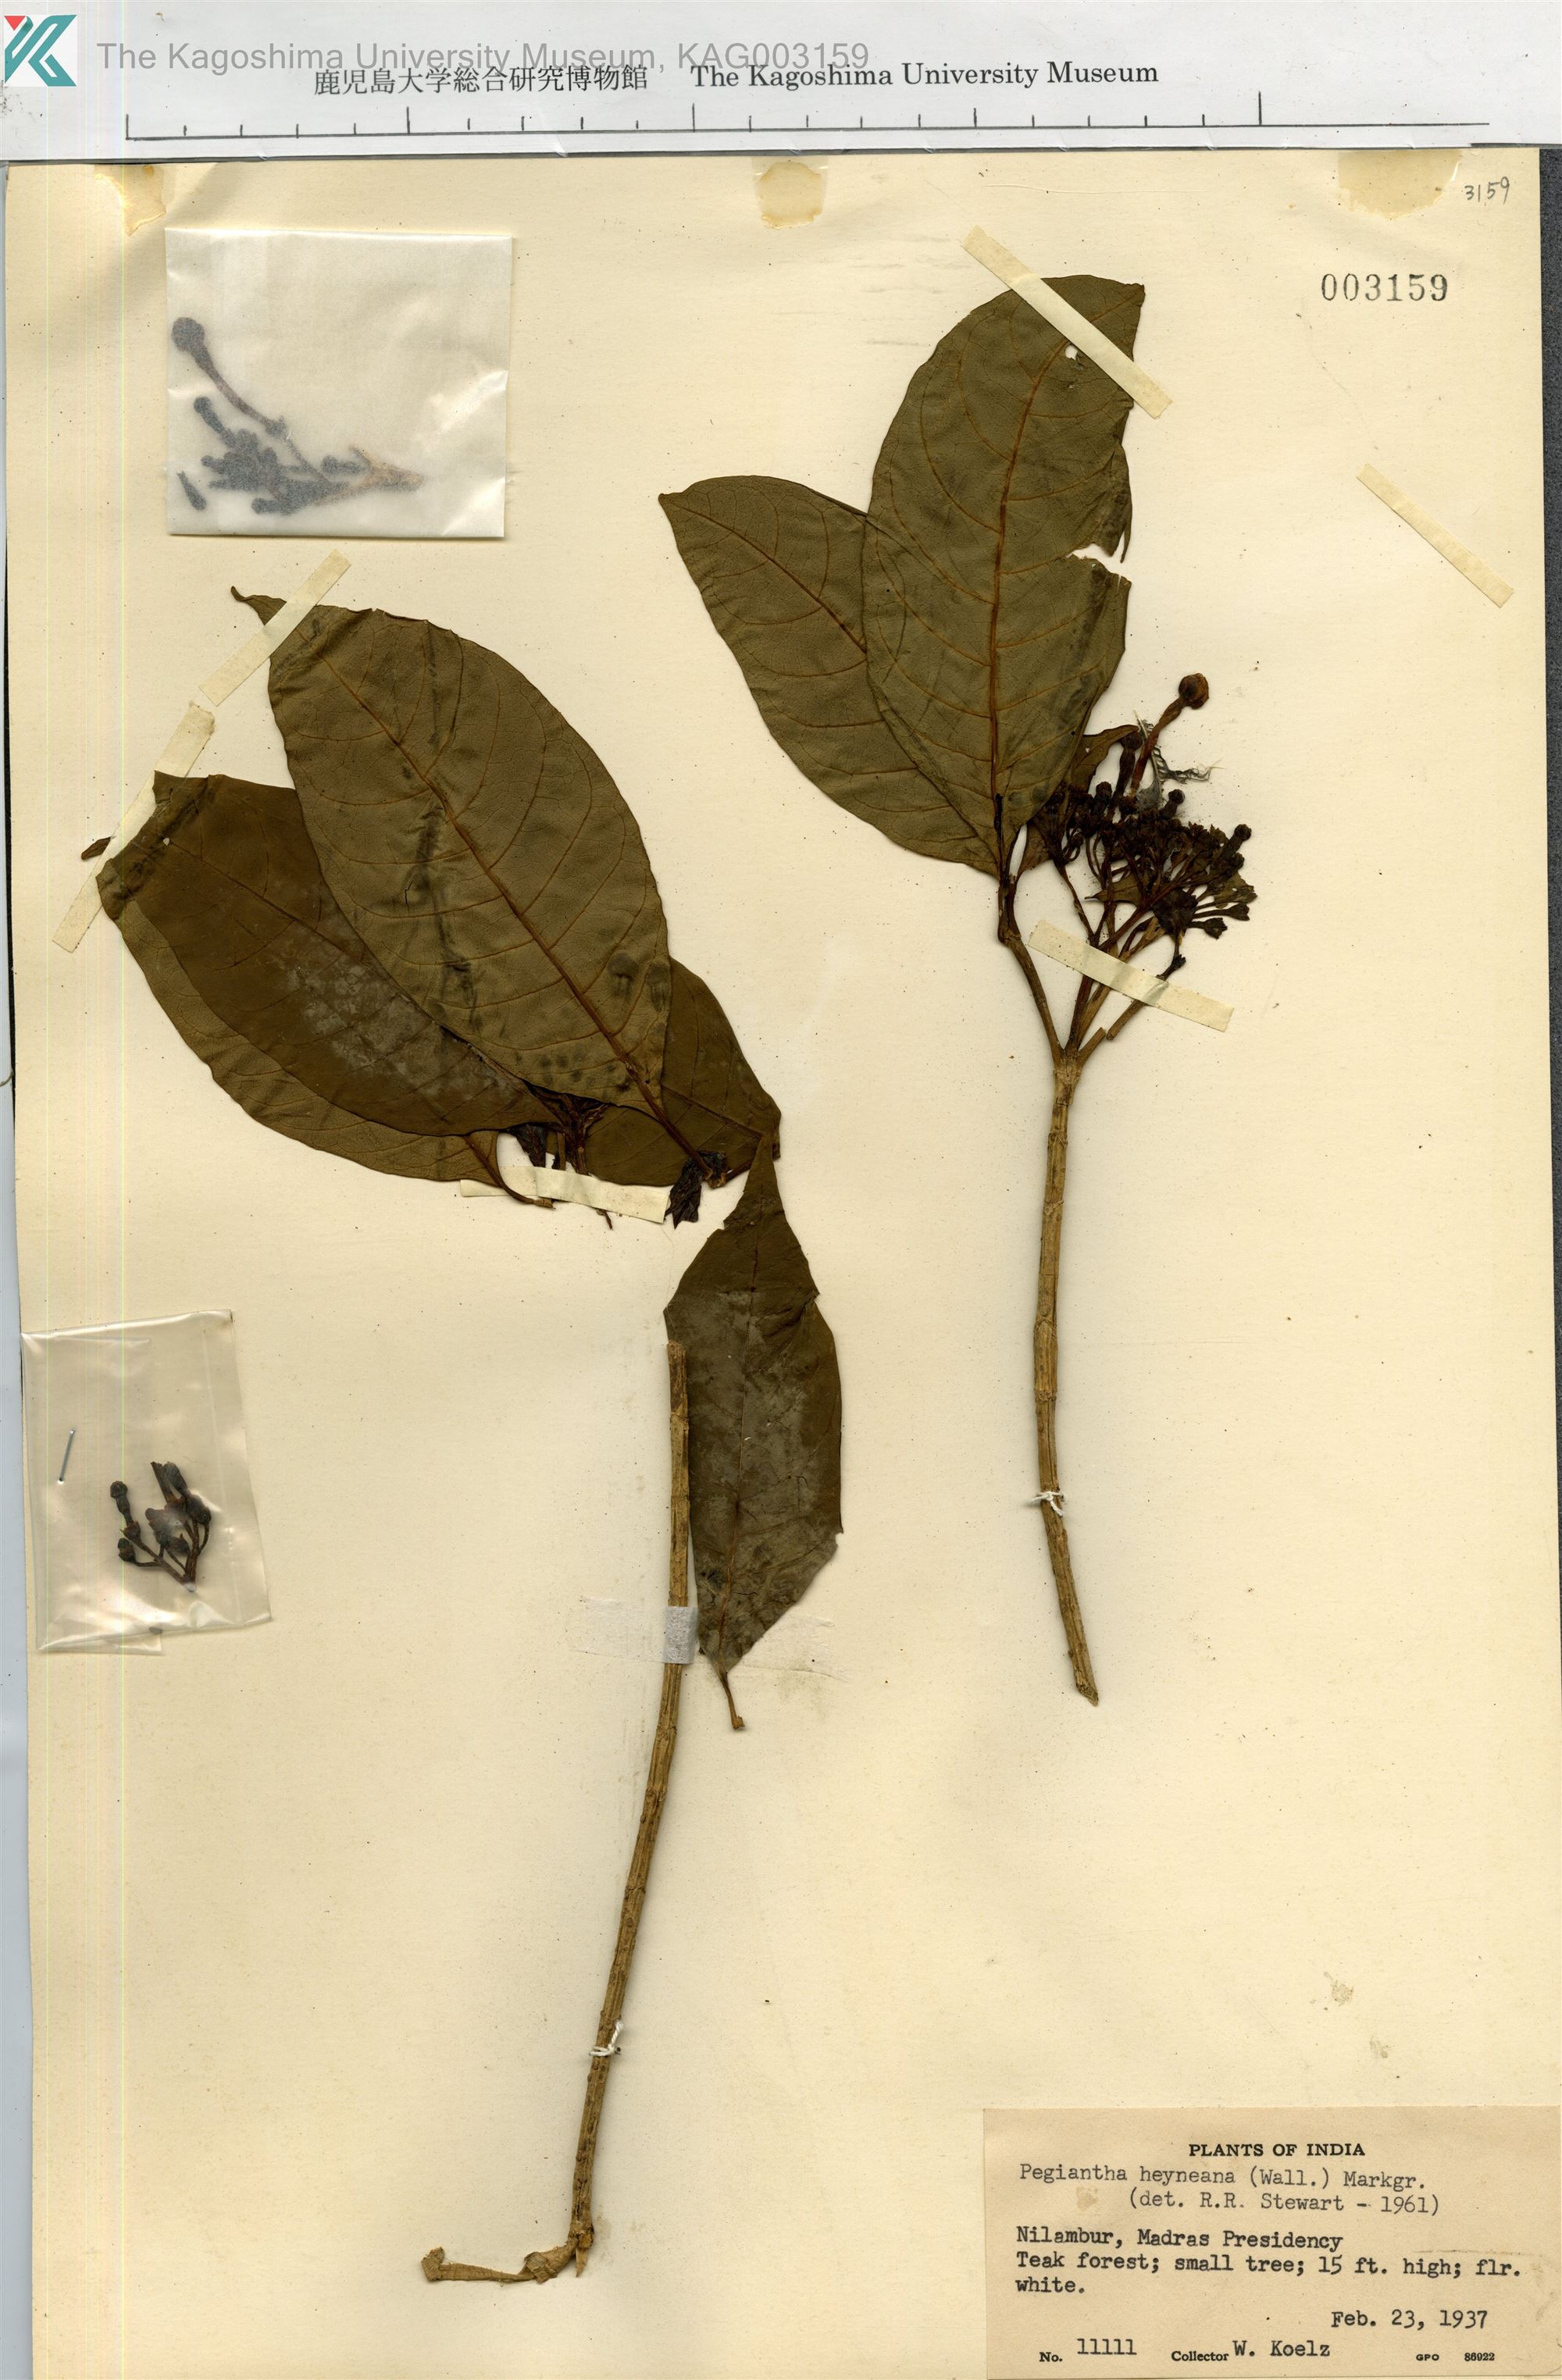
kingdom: Plantae
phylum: Tracheophyta
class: Magnoliopsida
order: Gentianales
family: Apocynaceae
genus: Tabernaemontana
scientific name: Tabernaemontana alternifolia
